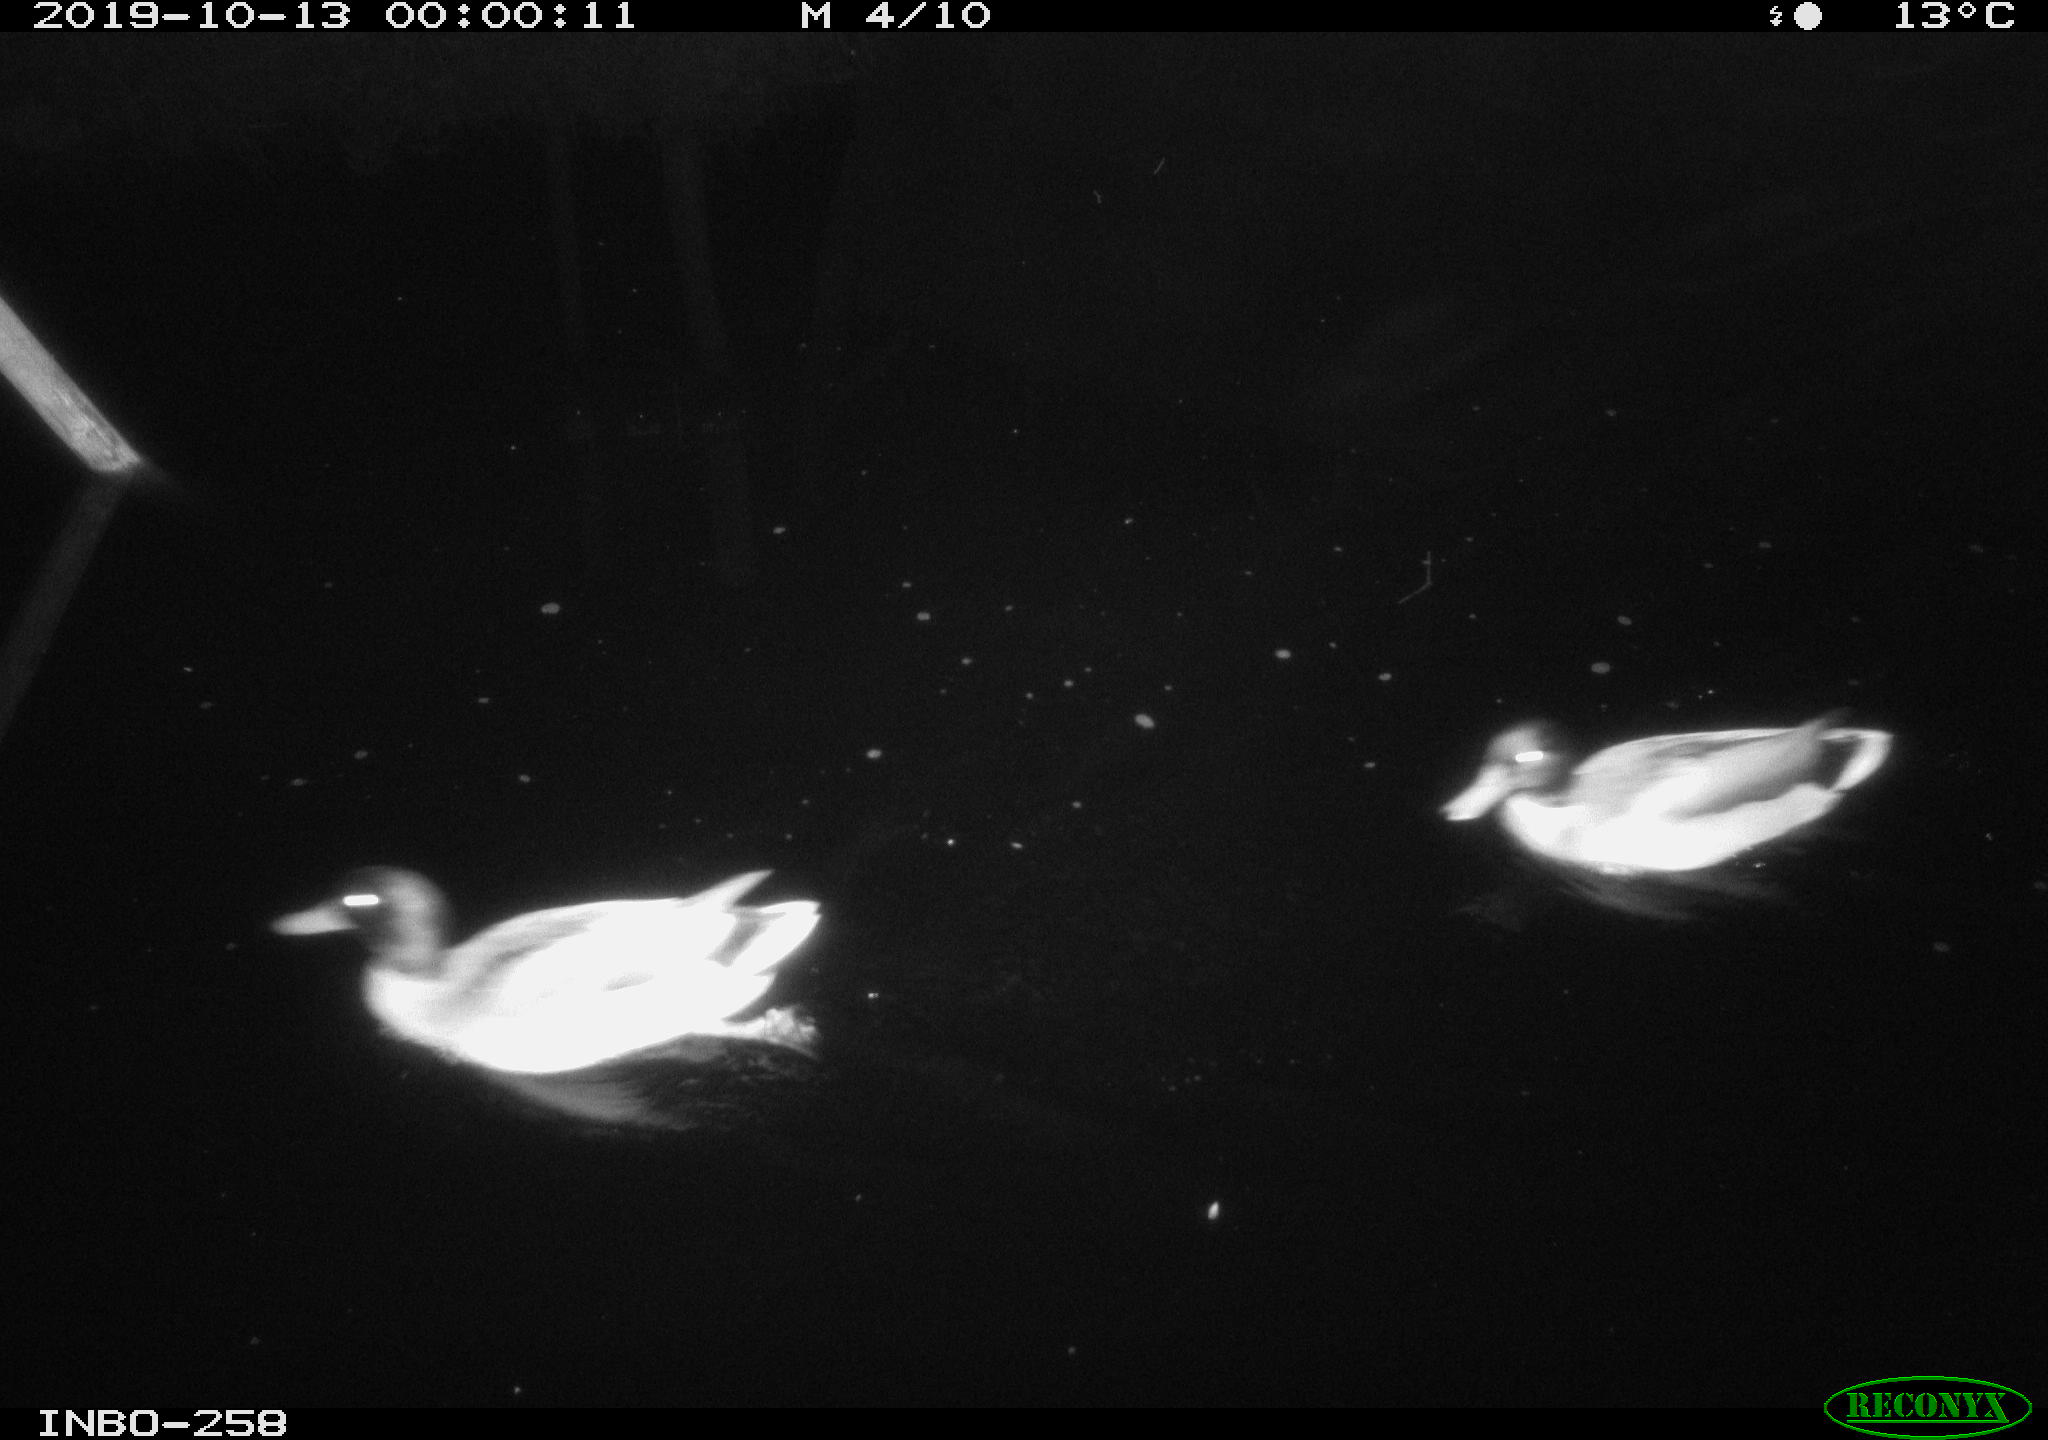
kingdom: Animalia
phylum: Chordata
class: Aves
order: Anseriformes
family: Anatidae
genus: Anas
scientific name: Anas platyrhynchos
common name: Mallard
